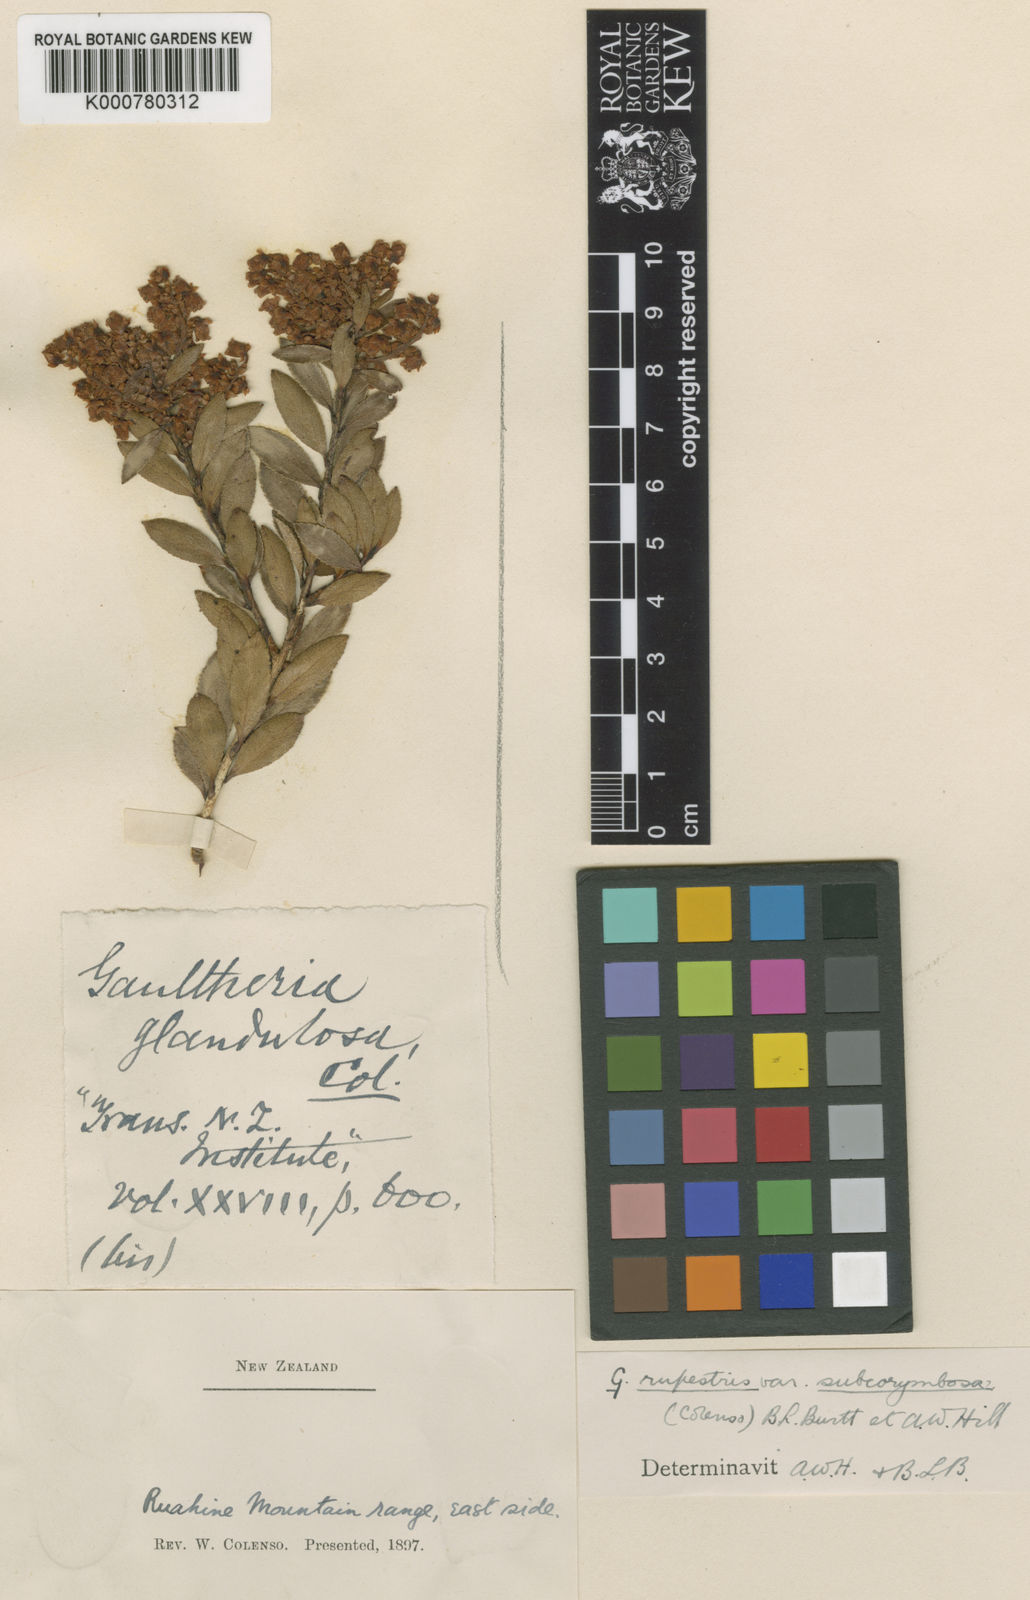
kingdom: Plantae
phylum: Tracheophyta
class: Magnoliopsida
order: Ericales
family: Ericaceae
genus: Gaultheria
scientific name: Gaultheria
